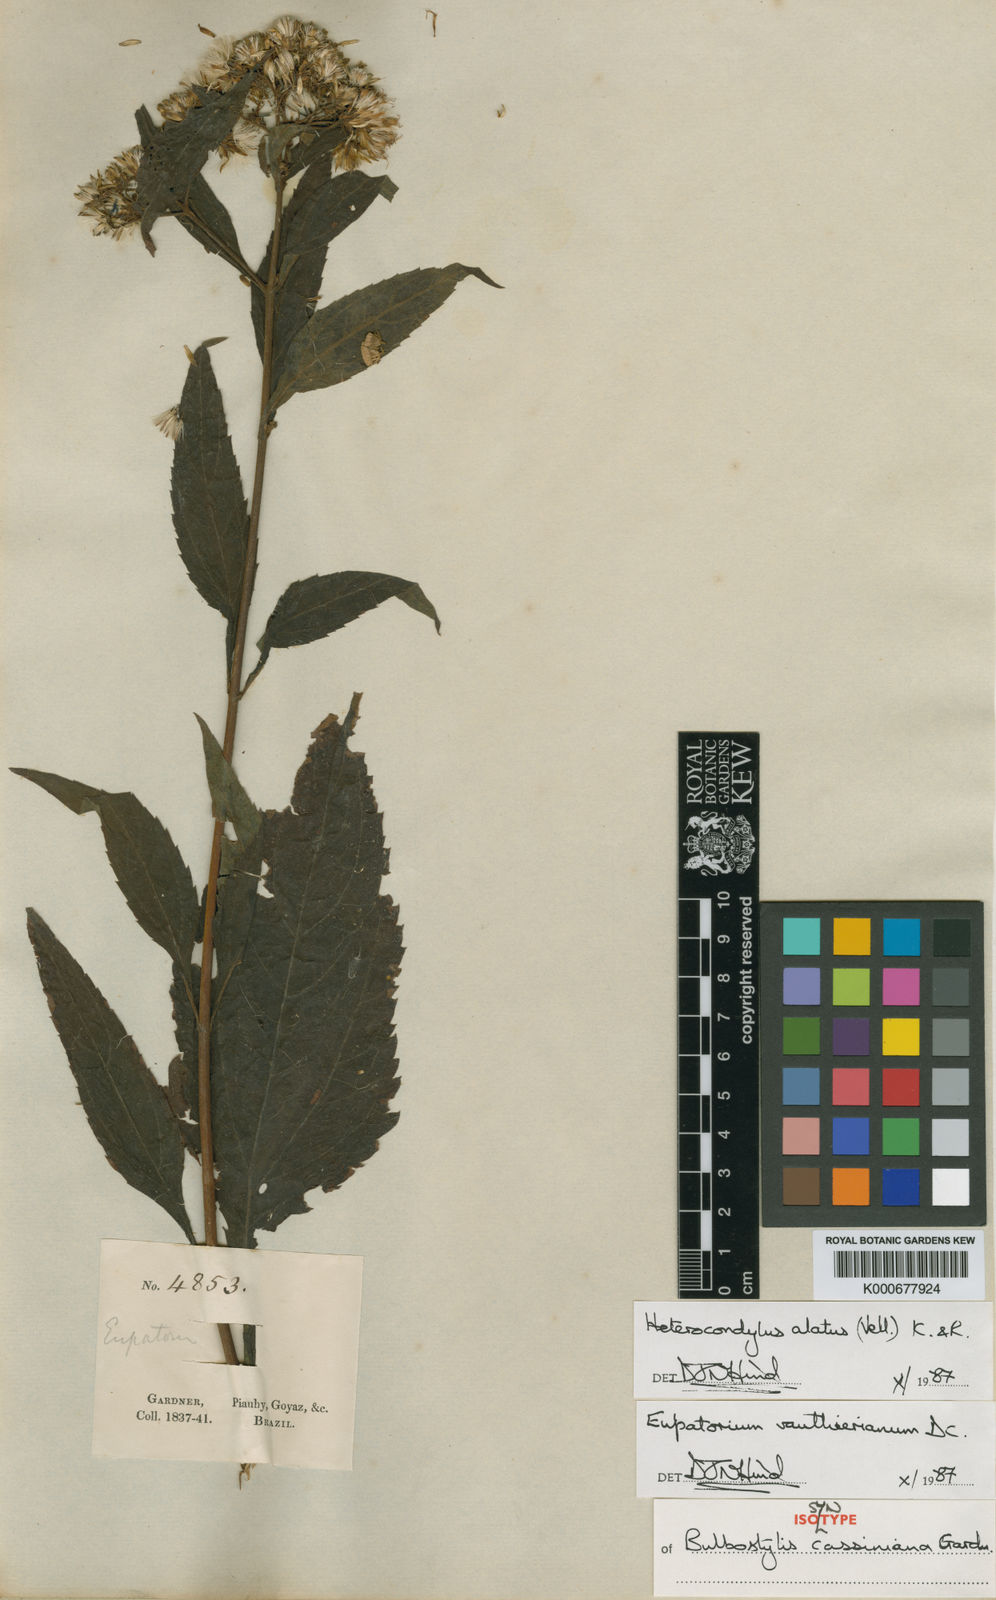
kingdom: Plantae
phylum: Tracheophyta
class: Magnoliopsida
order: Asterales
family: Asteraceae
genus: Heterocondylus
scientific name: Heterocondylus alatus
